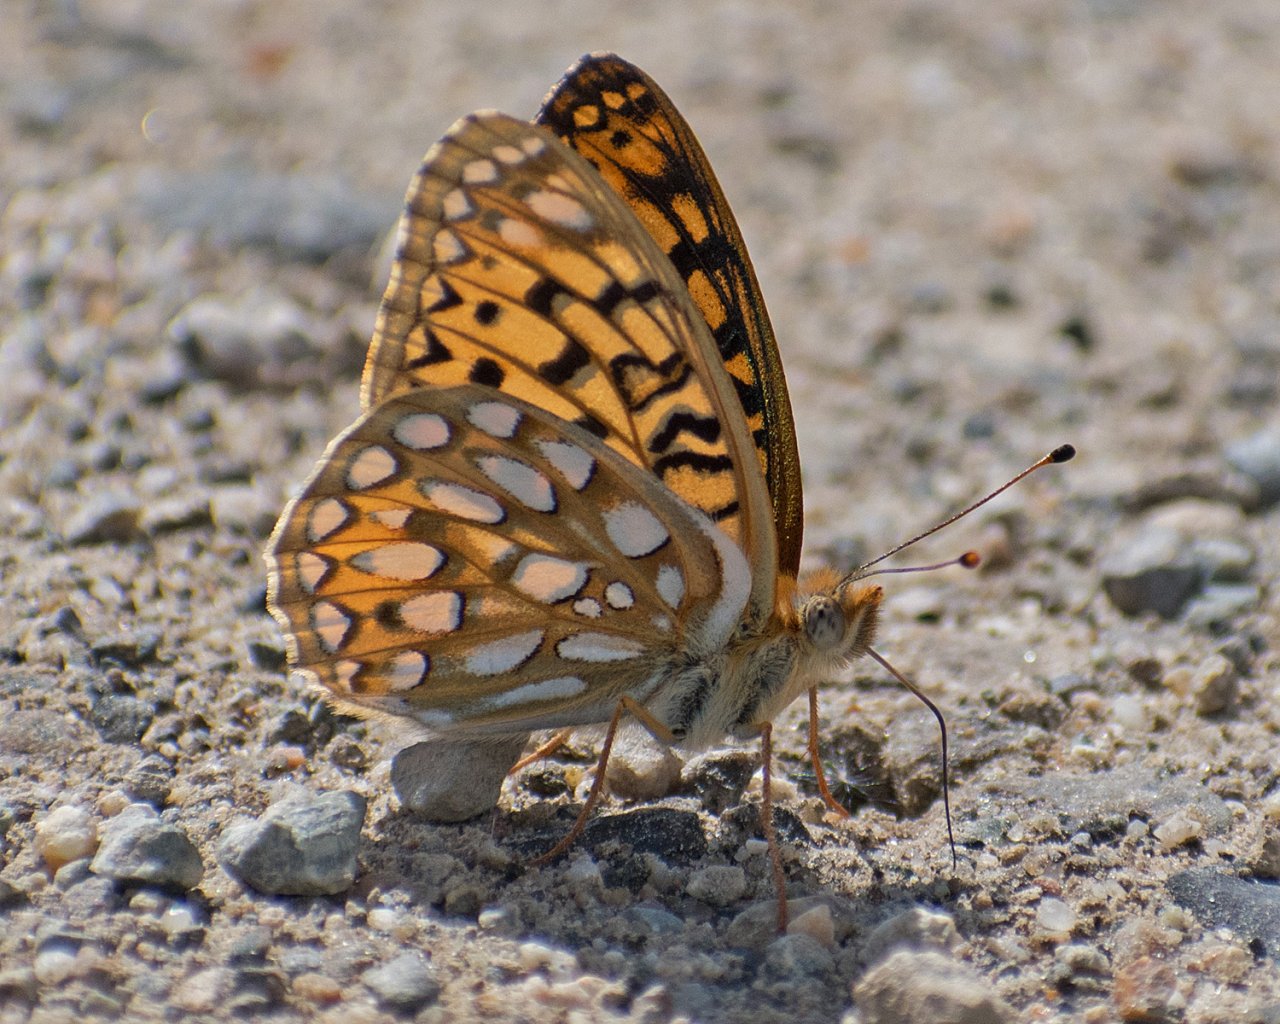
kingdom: Animalia
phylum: Arthropoda
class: Insecta
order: Lepidoptera
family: Nymphalidae
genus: Speyeria
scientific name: Speyeria callippe
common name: Callippe Fritillary
